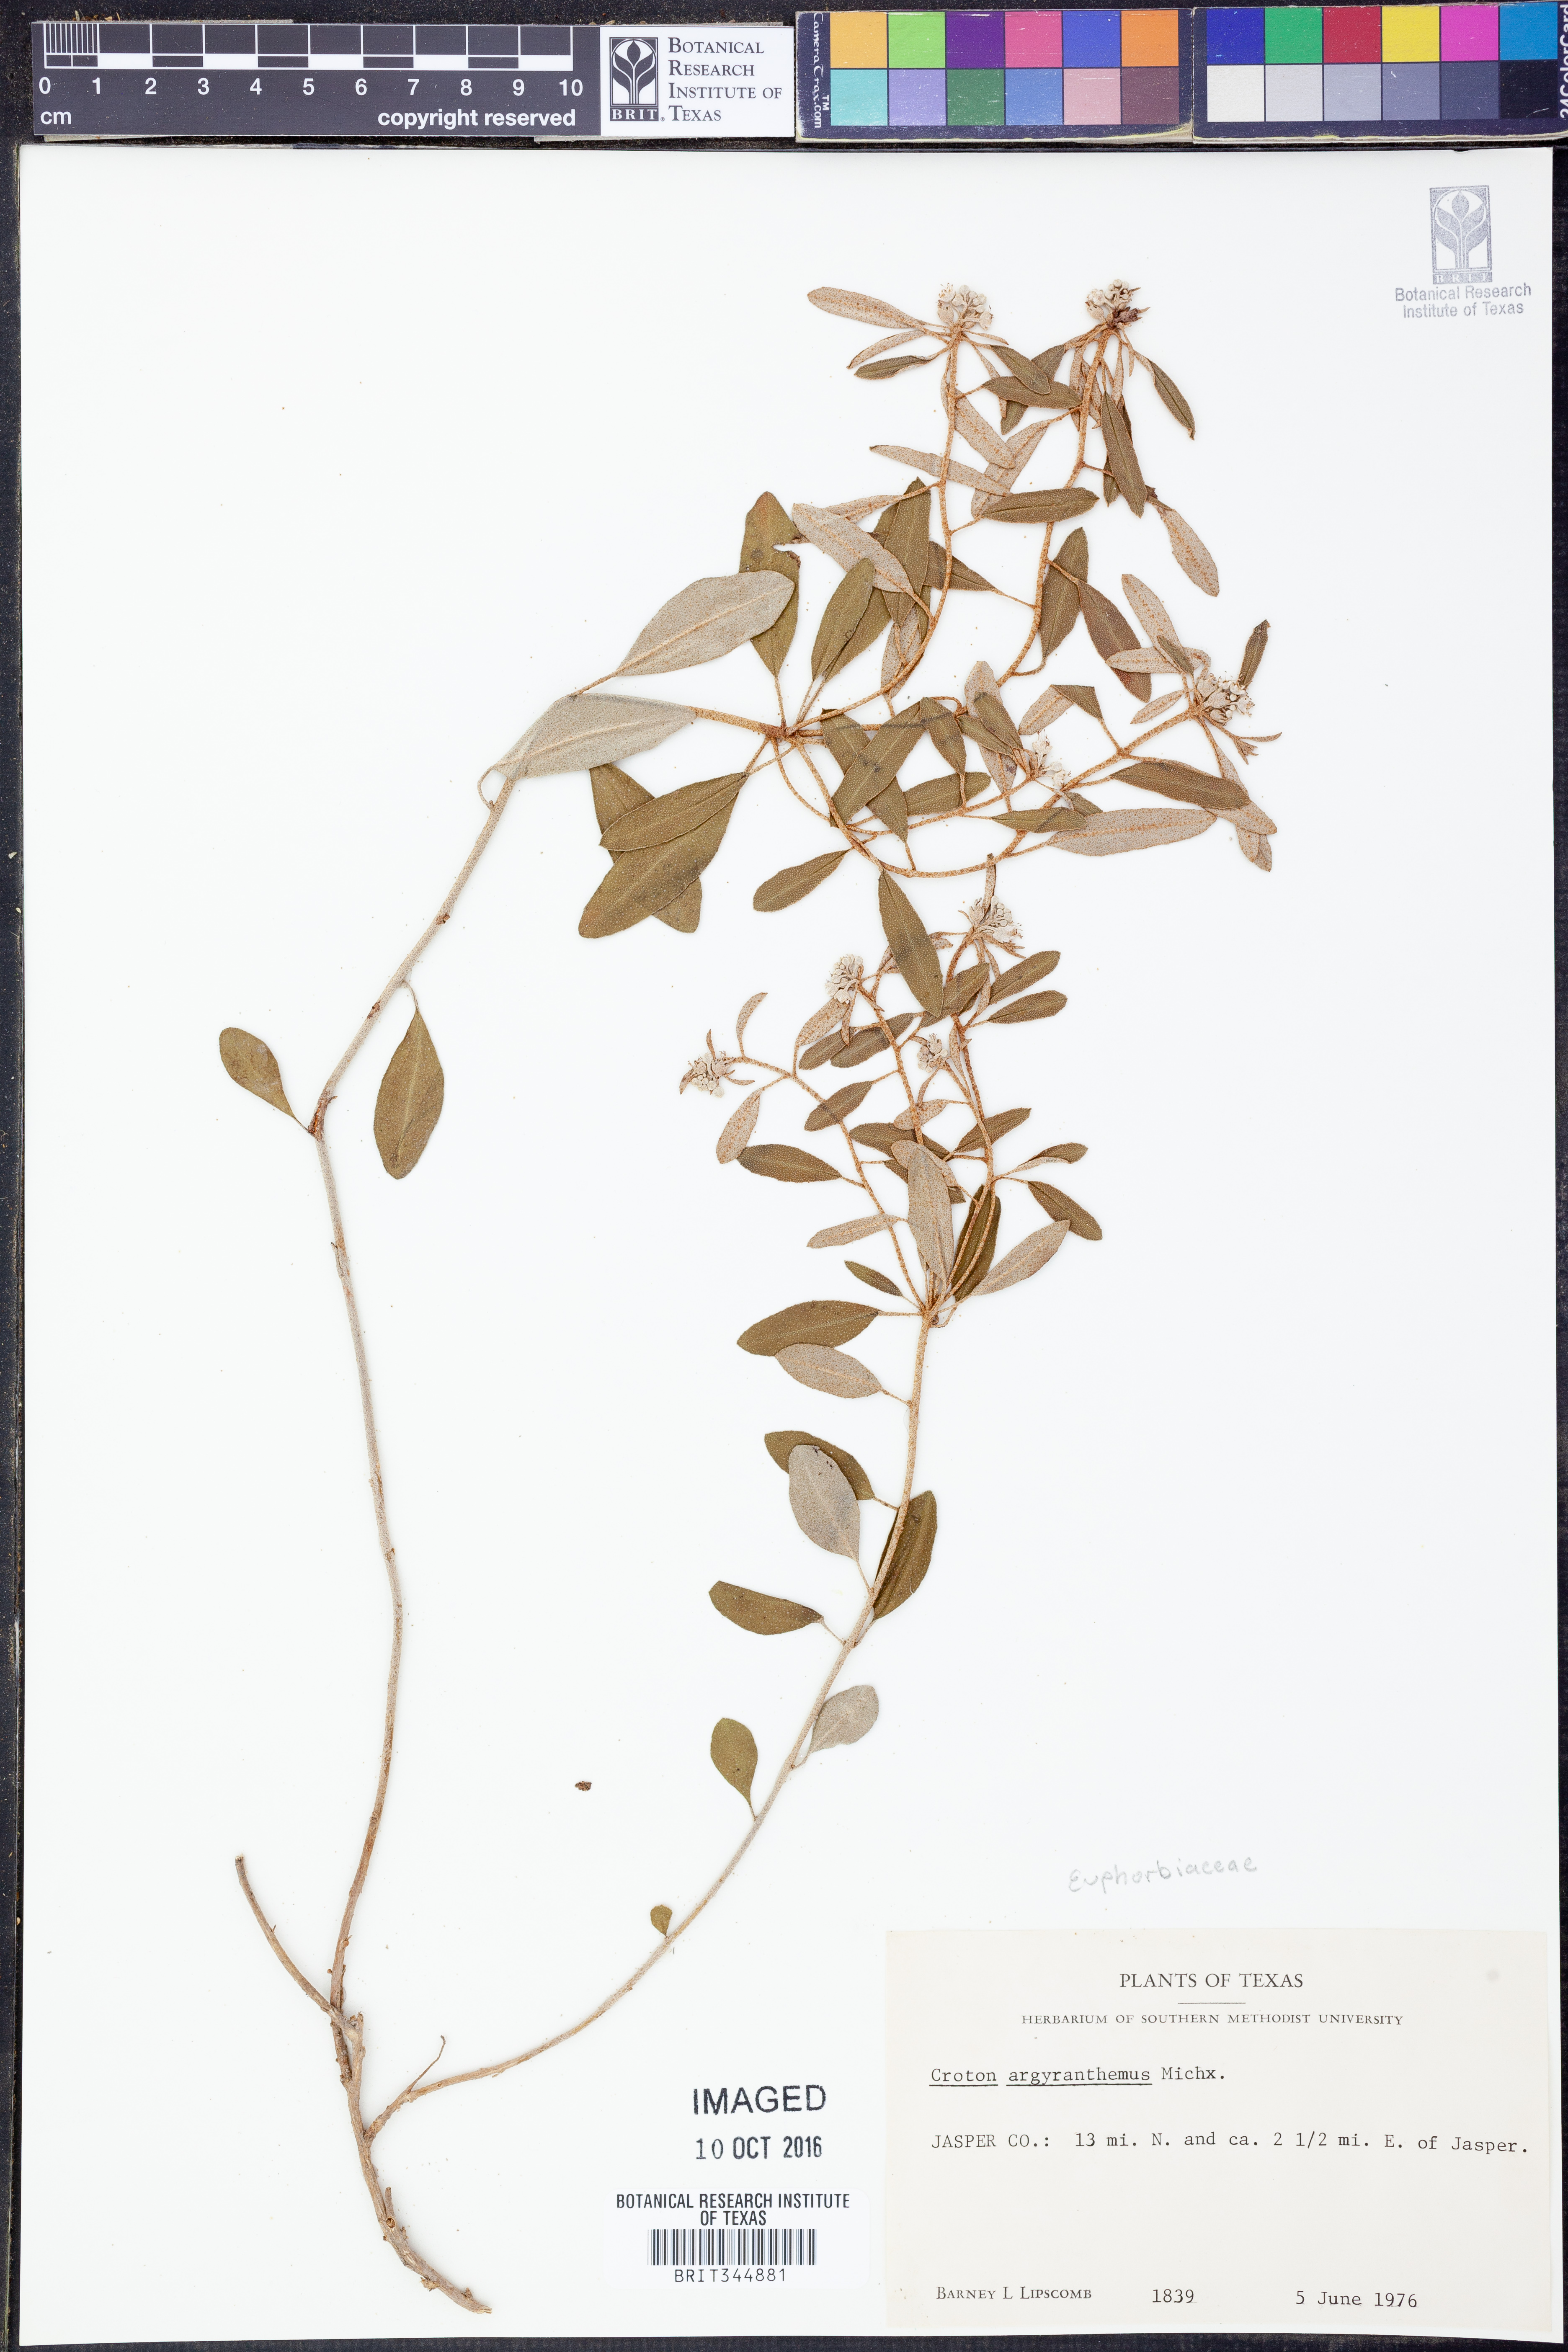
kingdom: Plantae
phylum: Tracheophyta
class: Magnoliopsida
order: Malpighiales
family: Euphorbiaceae
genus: Croton
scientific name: Croton argyranthemus
